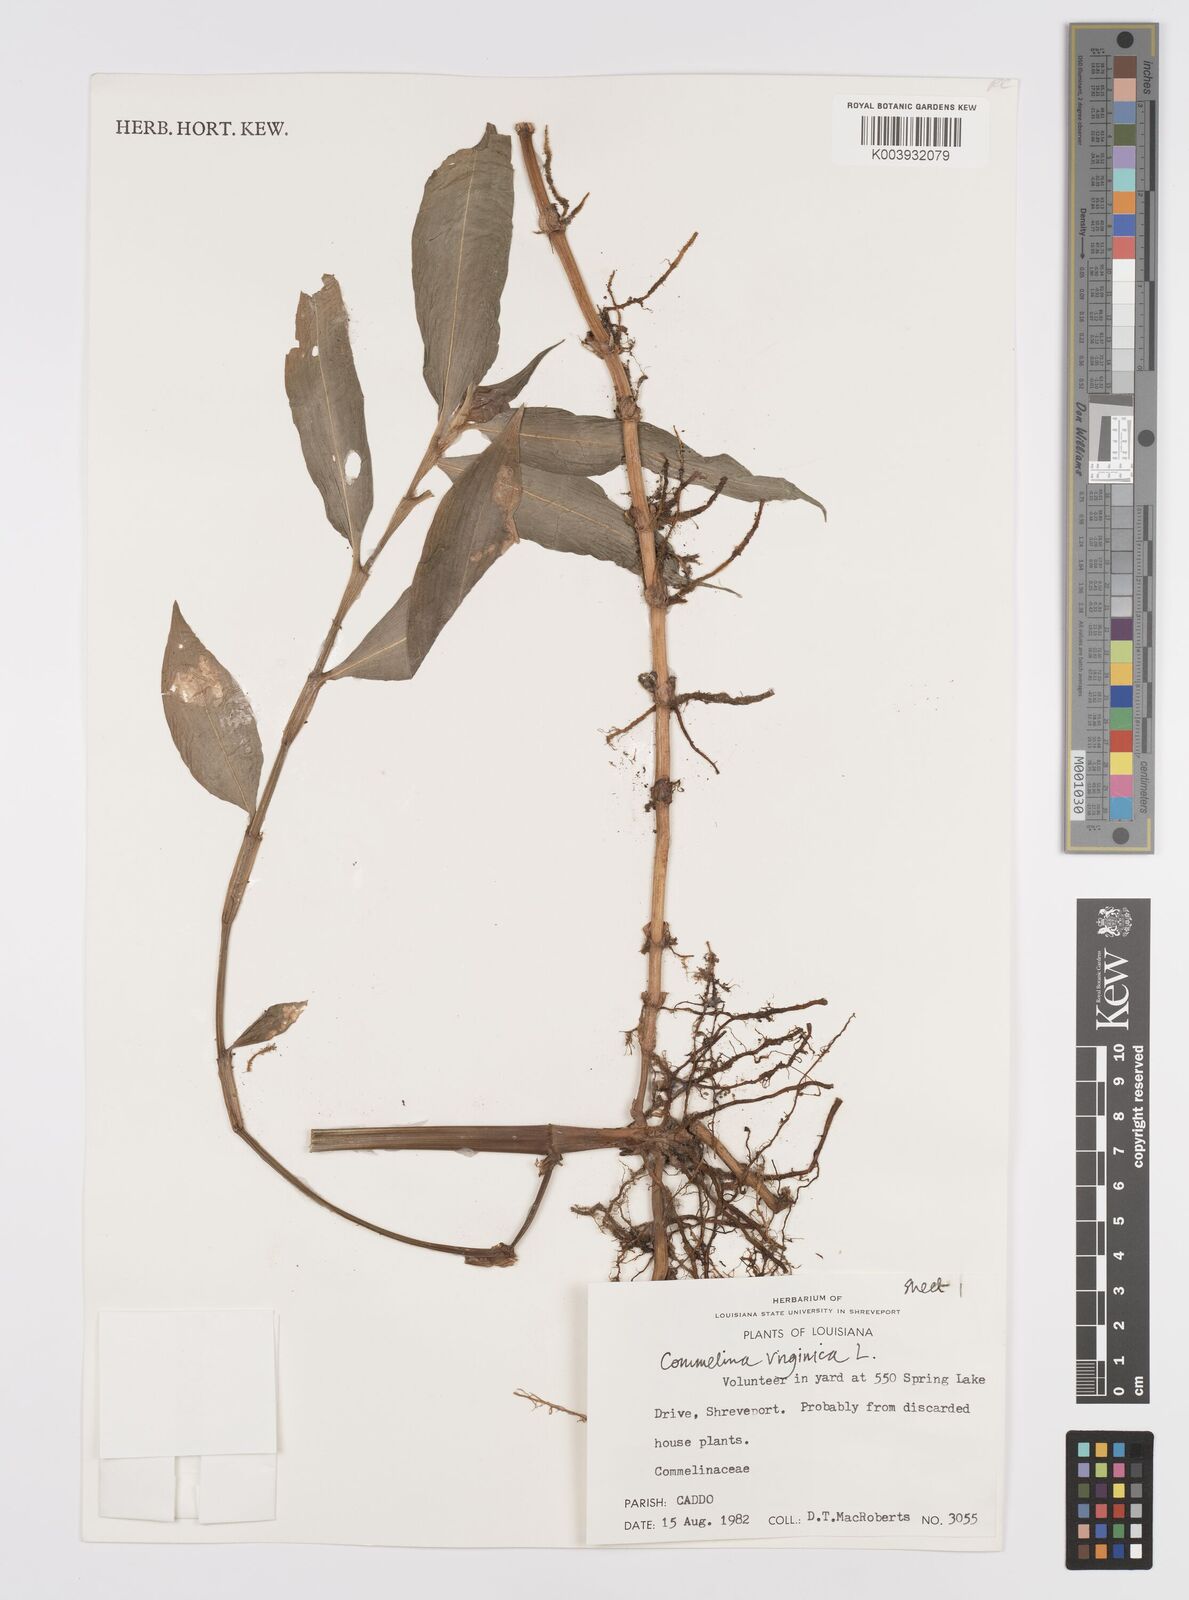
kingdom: Plantae
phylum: Tracheophyta
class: Liliopsida
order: Commelinales
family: Commelinaceae
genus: Commelina
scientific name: Commelina virginica
